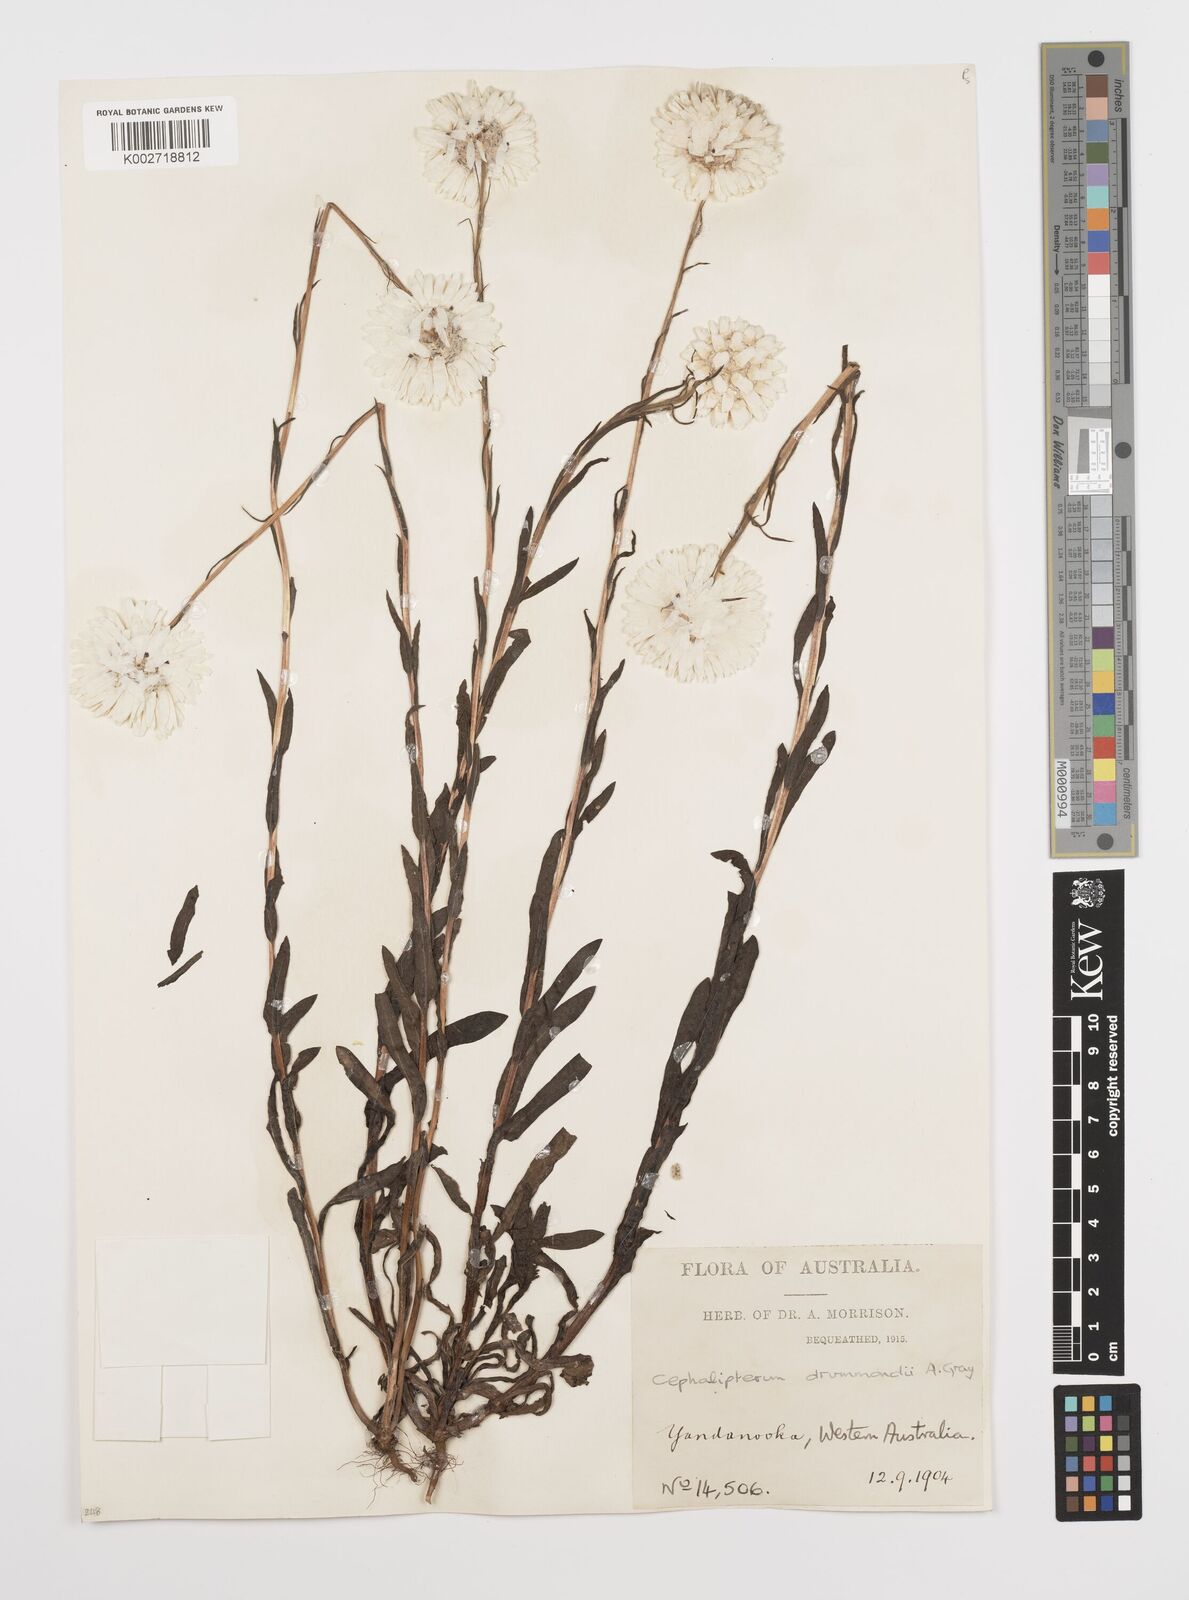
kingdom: Plantae
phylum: Tracheophyta
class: Magnoliopsida
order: Asterales
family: Asteraceae
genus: Cephalipterum
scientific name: Cephalipterum drummondii
